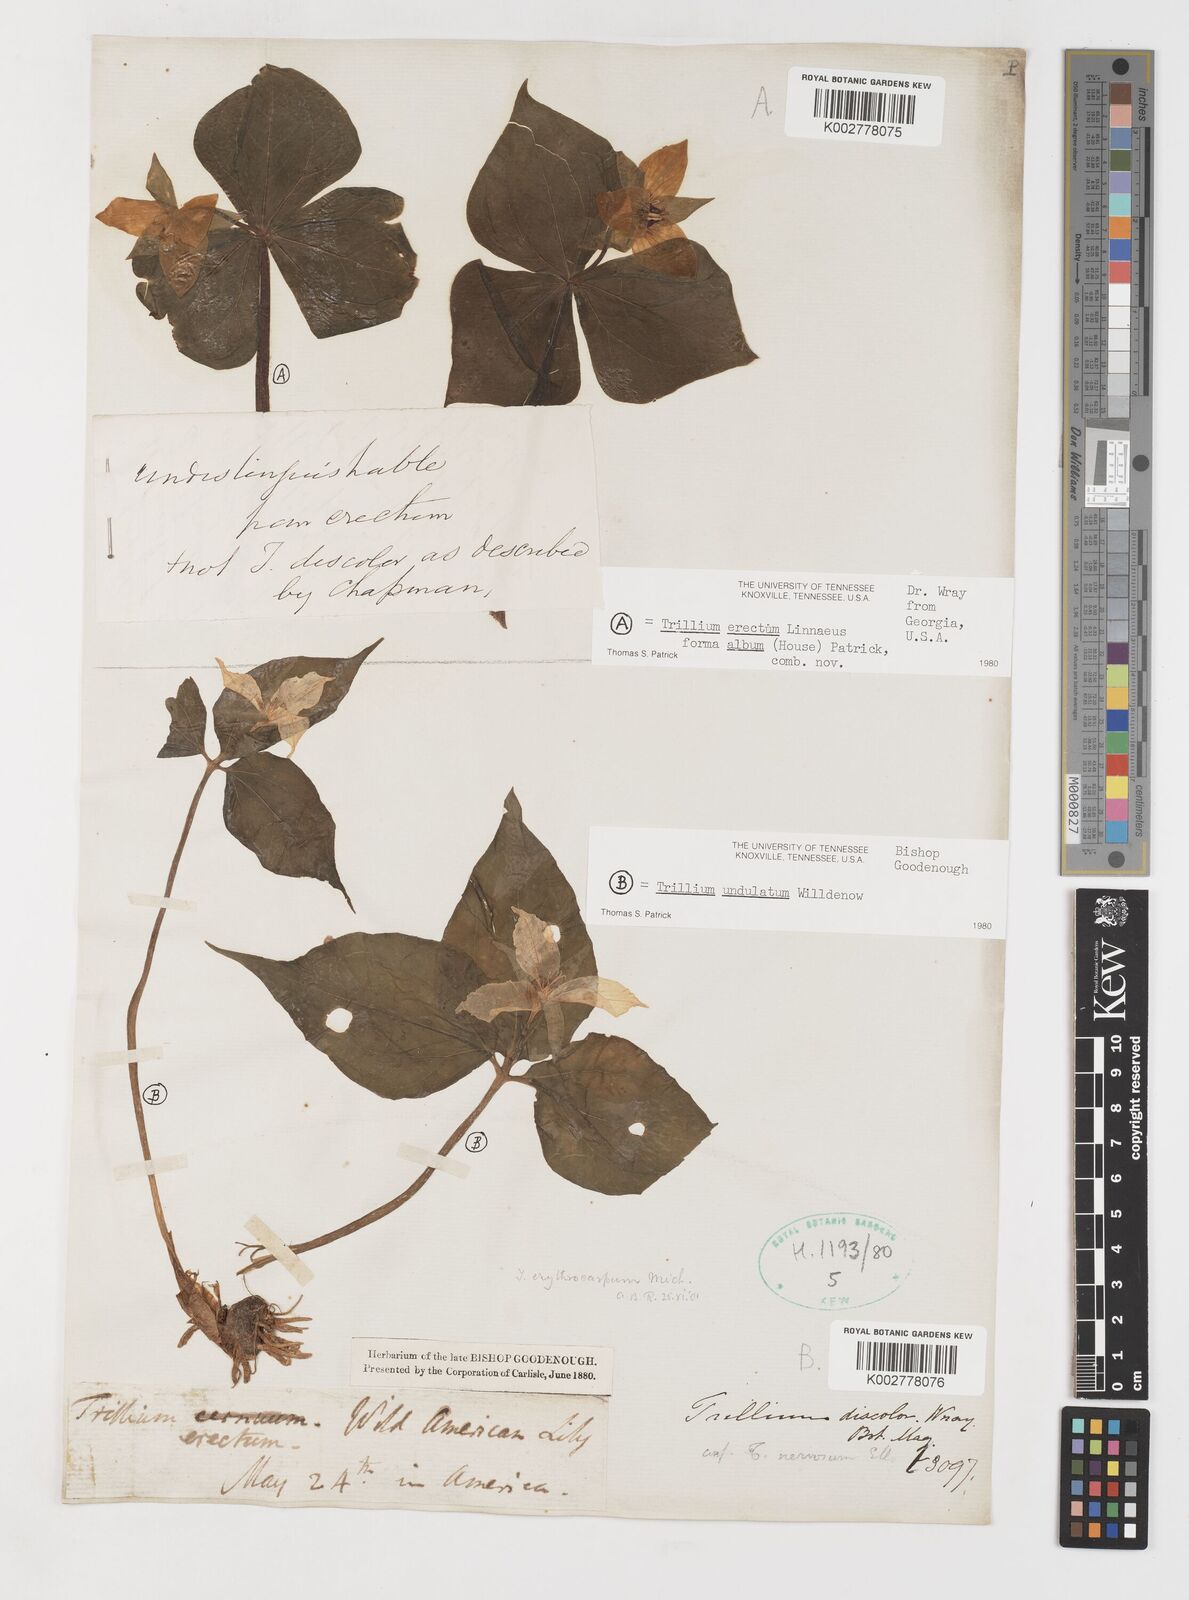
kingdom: Plantae
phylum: Tracheophyta
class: Liliopsida
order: Liliales
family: Melanthiaceae
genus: Trillium
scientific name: Trillium undulatum
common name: Paint trillium
